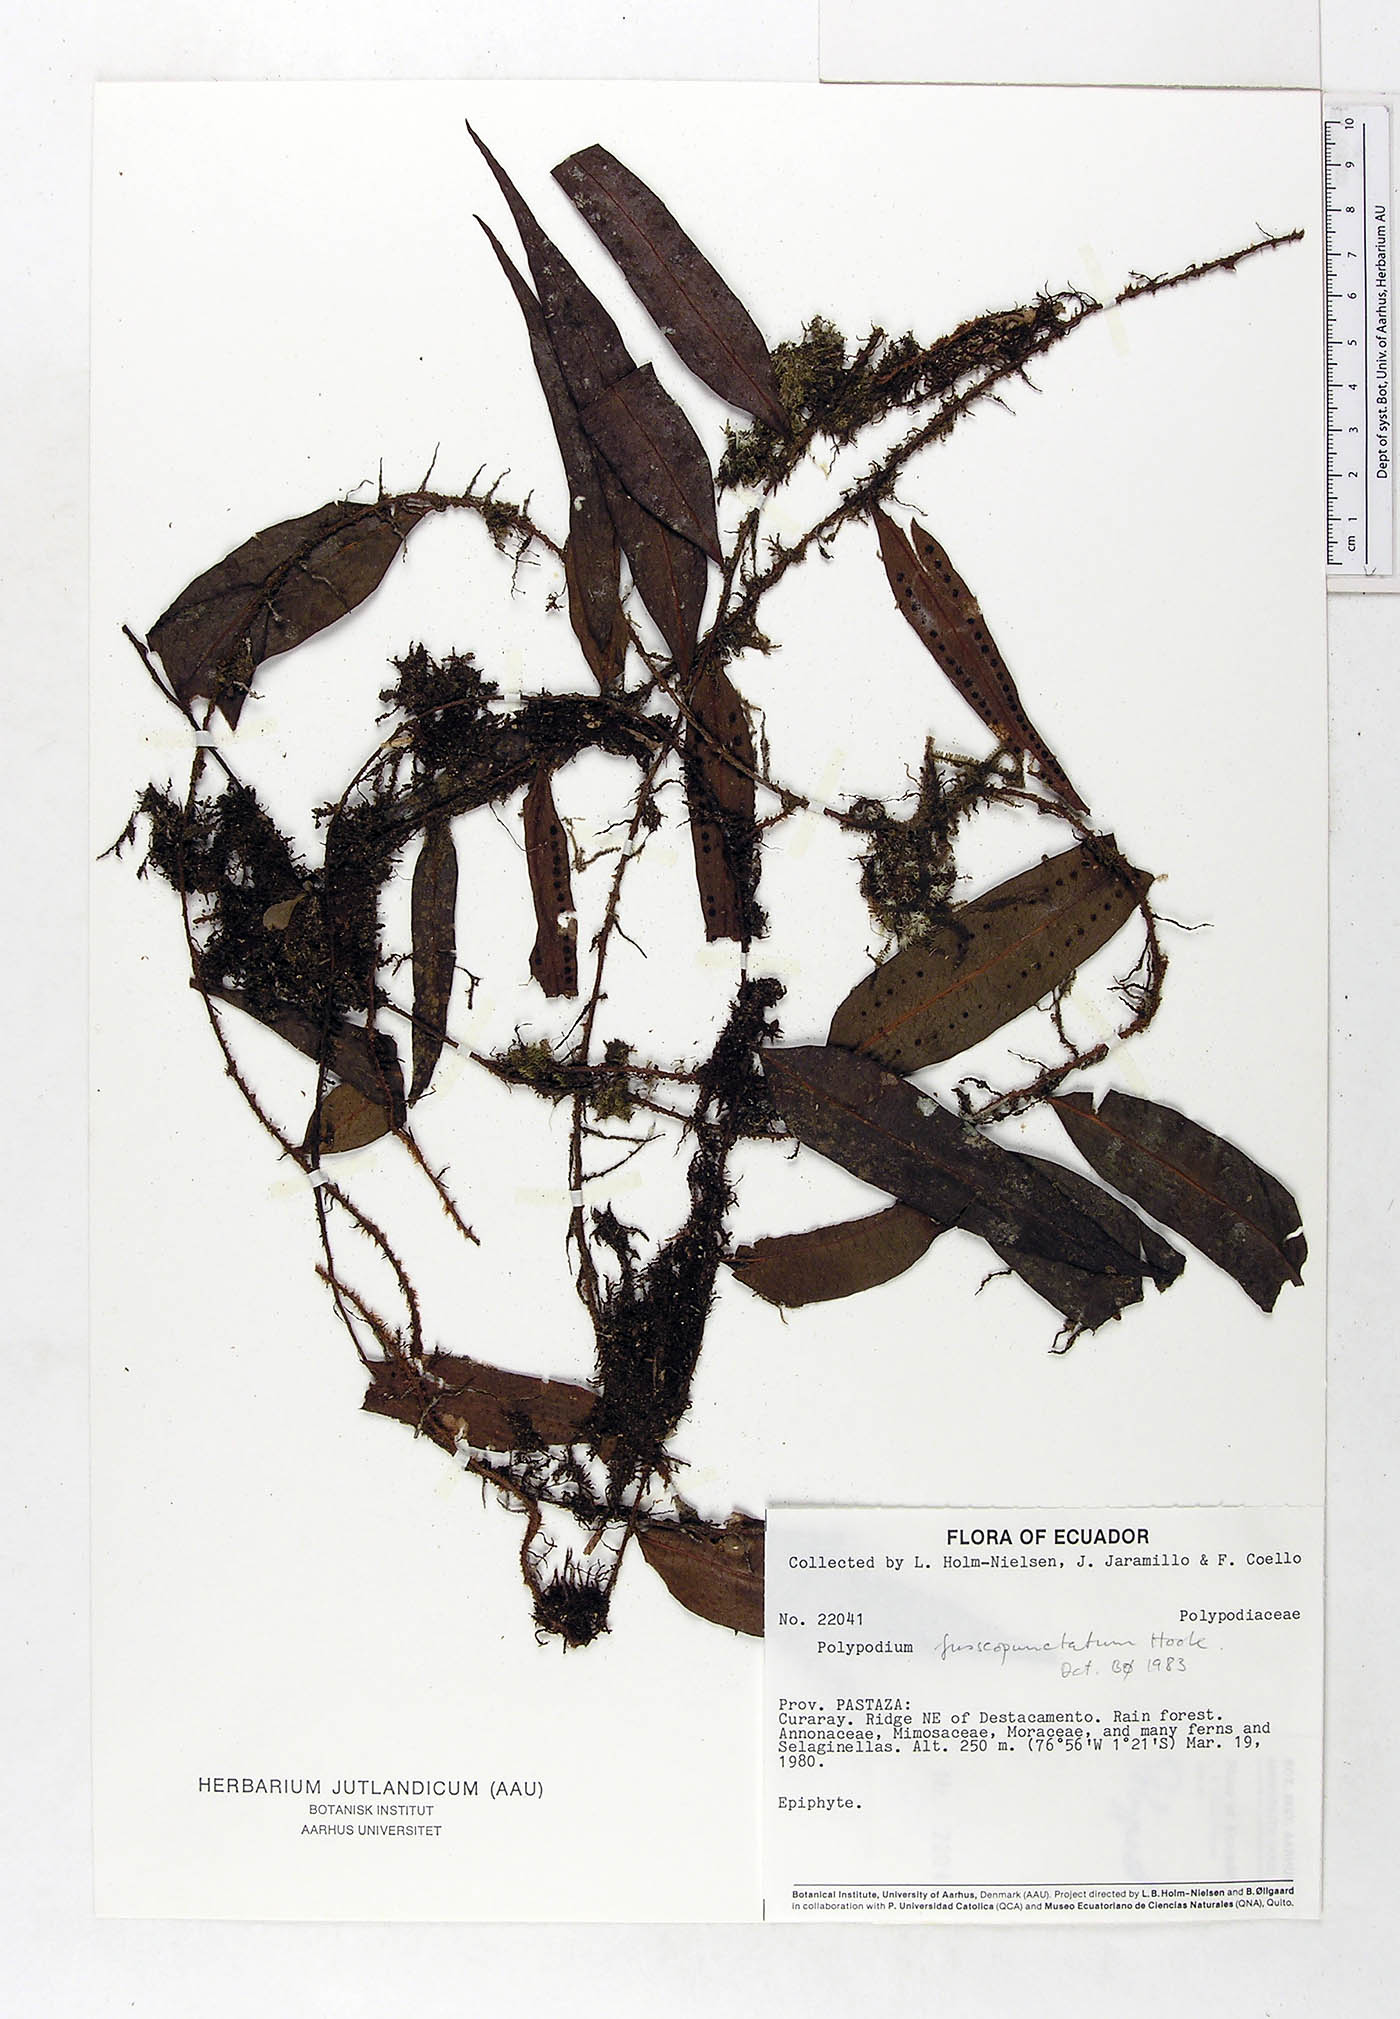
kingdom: Plantae
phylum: Tracheophyta
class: Polypodiopsida
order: Polypodiales
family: Polypodiaceae
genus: Microgramma
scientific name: Microgramma dictyophylla
